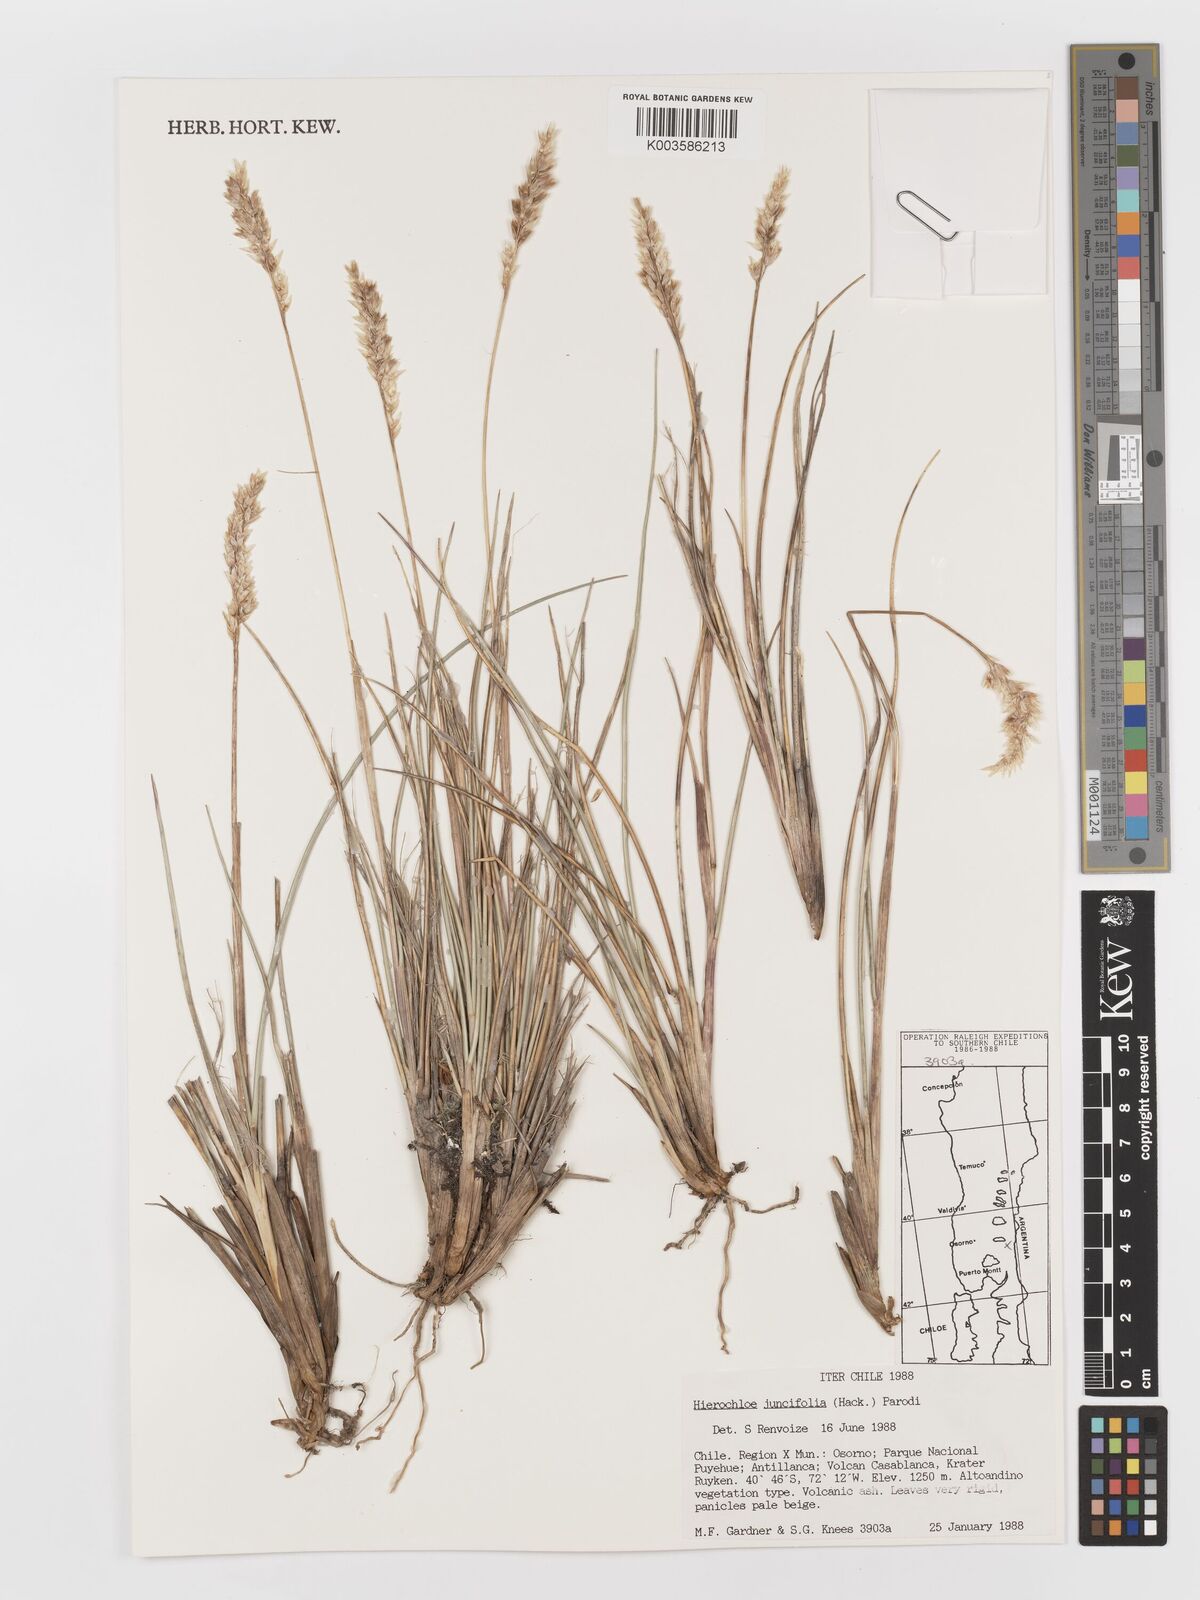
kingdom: Plantae
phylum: Tracheophyta
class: Liliopsida
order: Poales
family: Poaceae
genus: Anthoxanthum
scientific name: Anthoxanthum juncifolium
